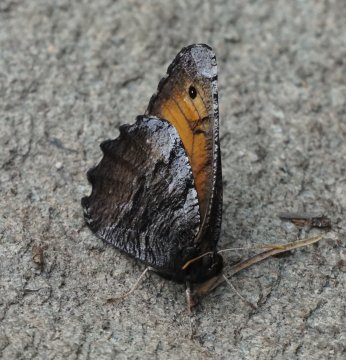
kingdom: Animalia
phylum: Arthropoda
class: Insecta
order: Lepidoptera
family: Nymphalidae
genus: Oeneis
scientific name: Oeneis macounii
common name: Macoun's Arctic
